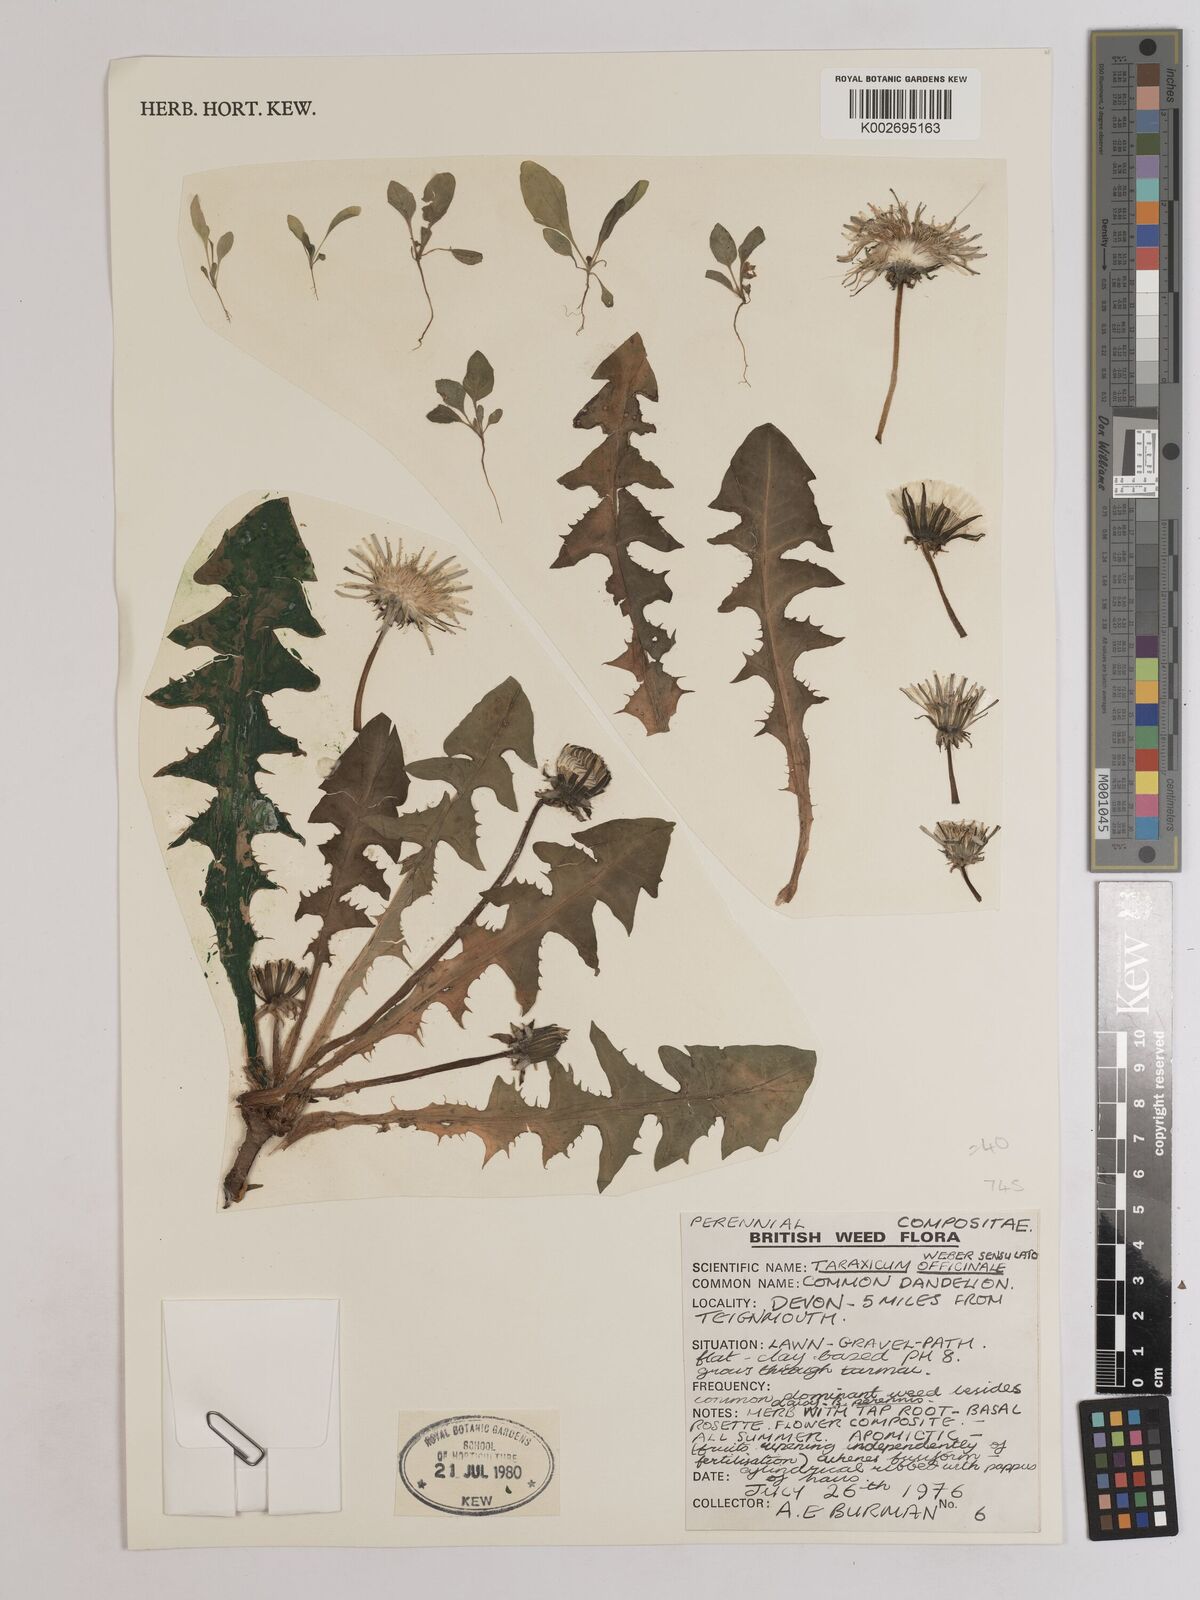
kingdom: Plantae
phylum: Tracheophyta
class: Magnoliopsida
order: Asterales
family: Asteraceae
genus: Taraxacum
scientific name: Taraxacum officinale
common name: Common dandelion
